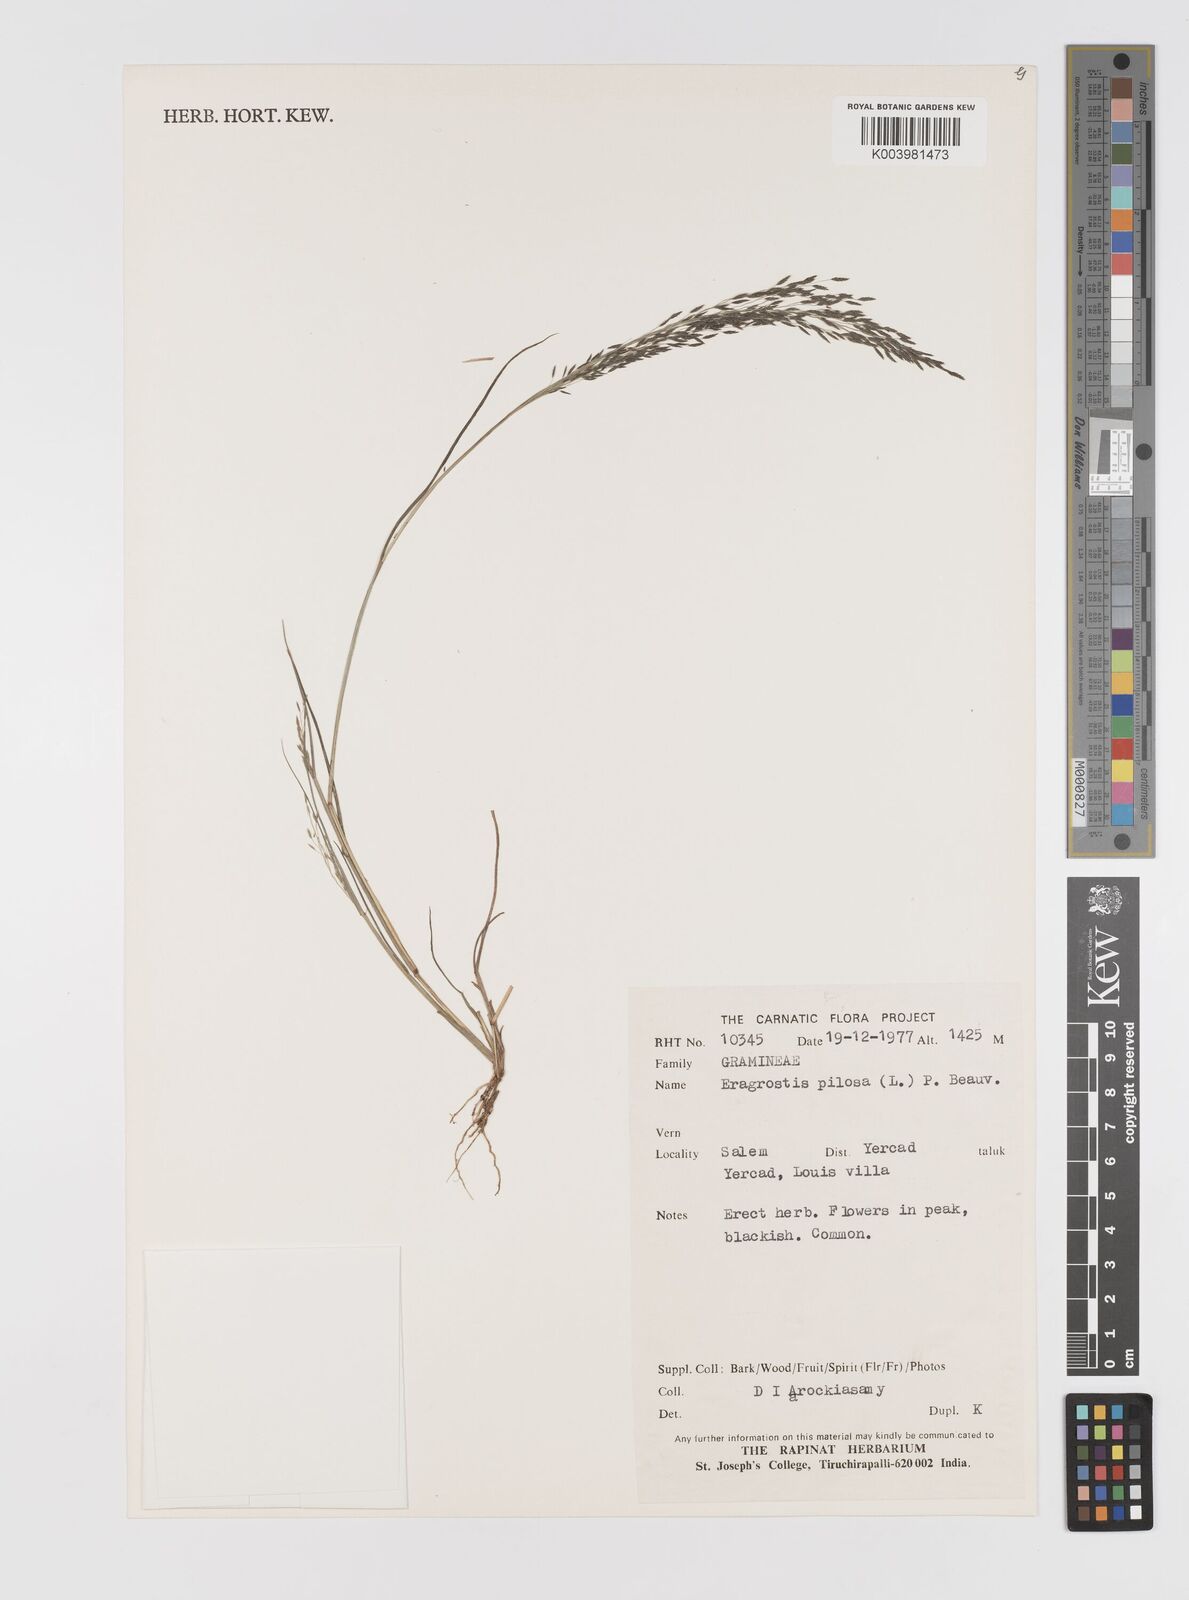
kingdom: Plantae
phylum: Tracheophyta
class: Liliopsida
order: Poales
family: Poaceae
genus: Eragrostis
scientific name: Eragrostis pilosa
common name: Indian lovegrass
